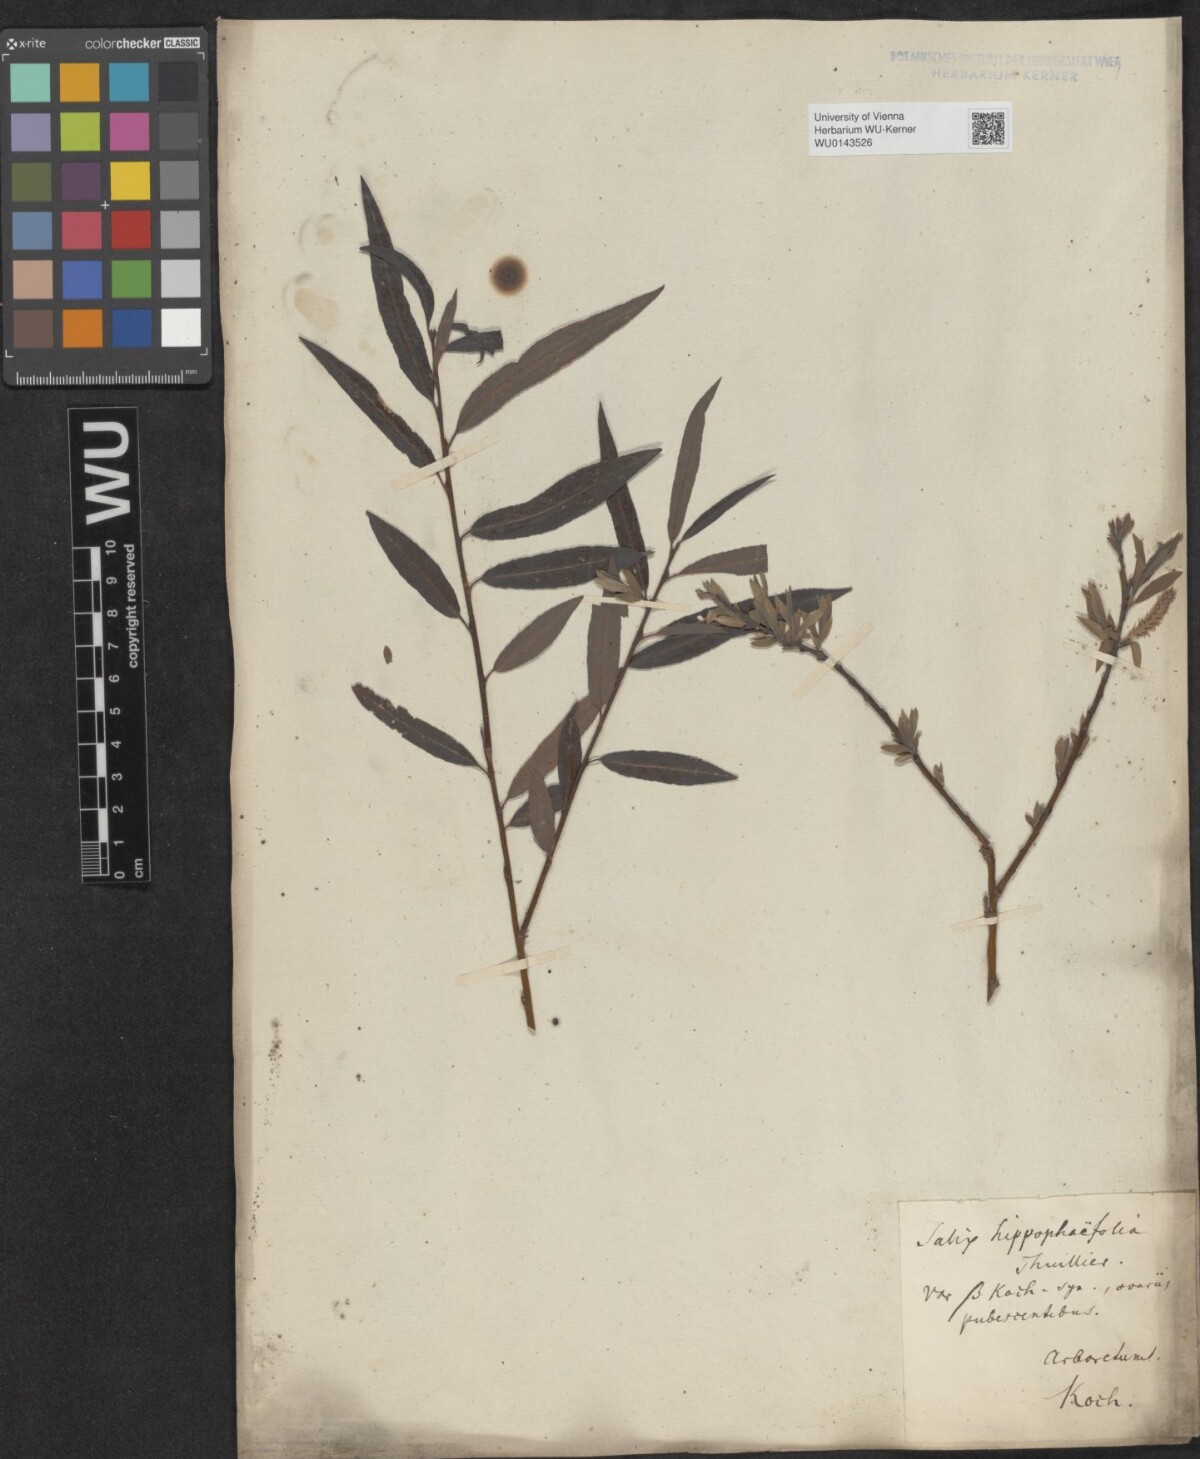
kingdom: Plantae
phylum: Tracheophyta
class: Magnoliopsida
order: Malpighiales
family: Salicaceae
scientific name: Salicaceae
